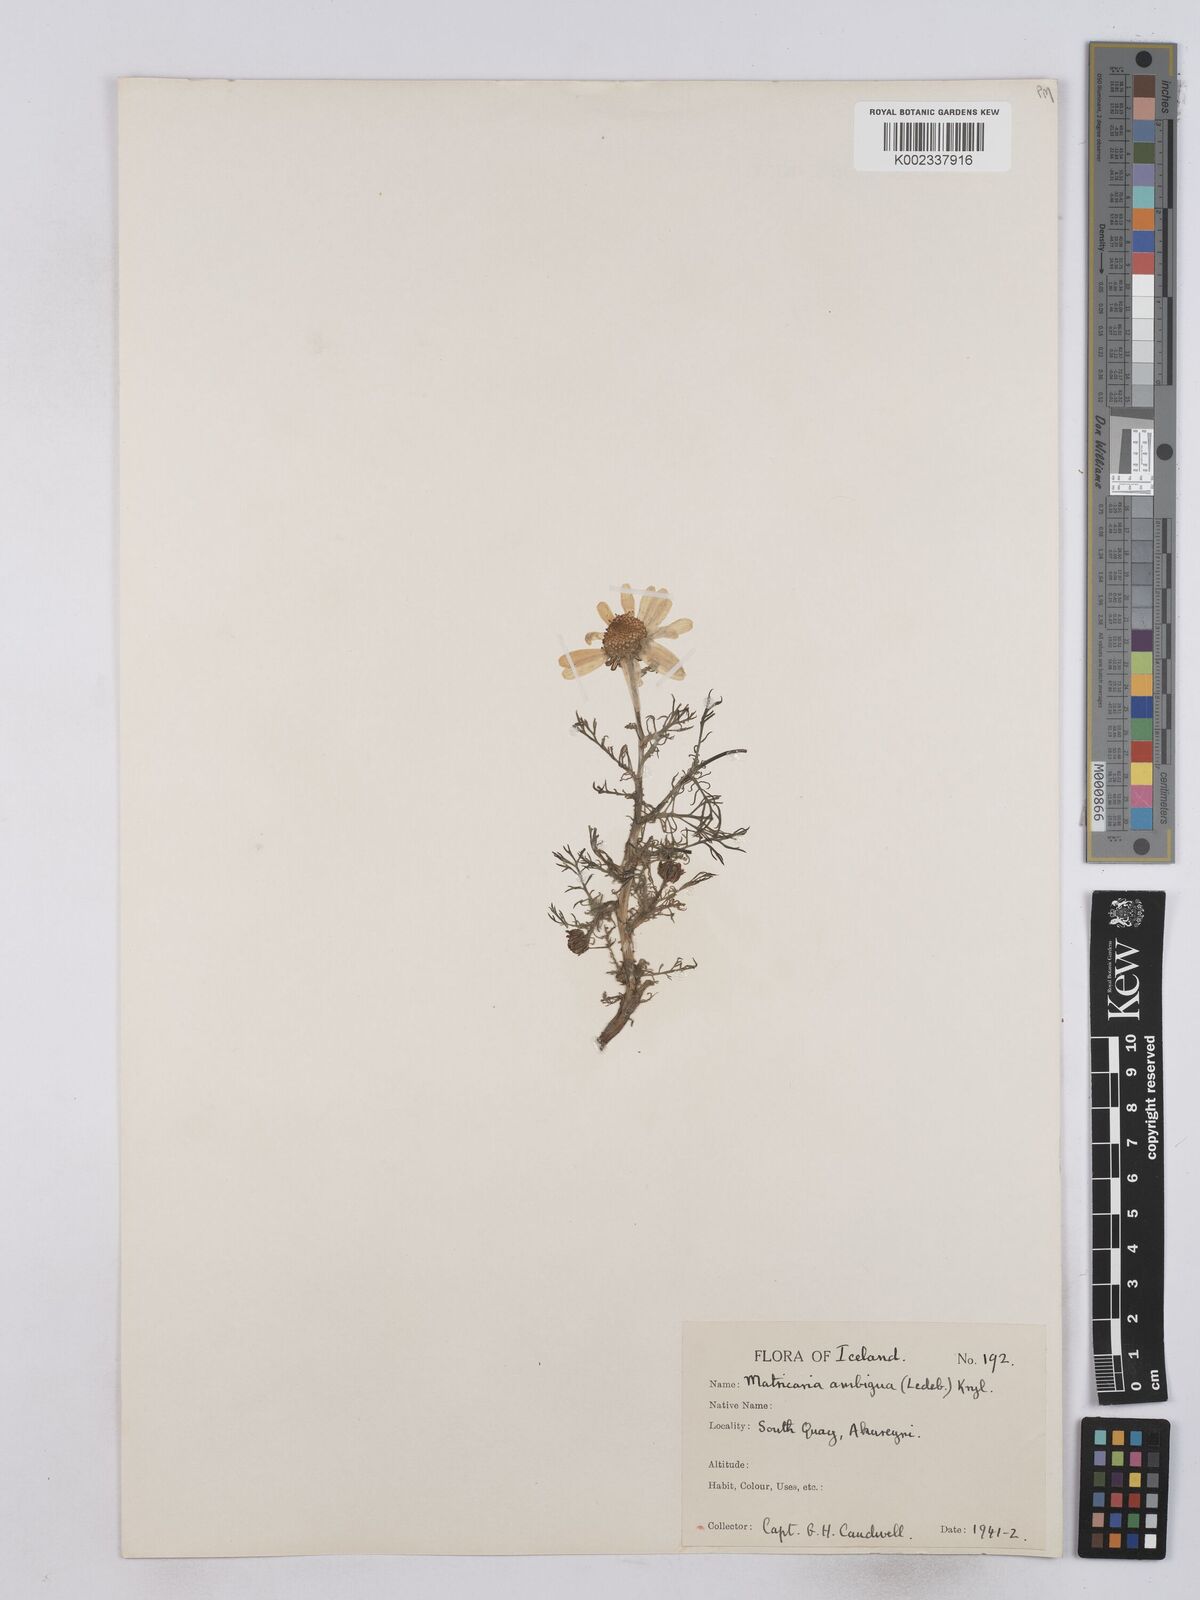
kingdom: Plantae
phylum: Tracheophyta
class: Magnoliopsida
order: Asterales
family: Asteraceae
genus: Matricaria
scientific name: Matricaria discoidea
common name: Disc mayweed
